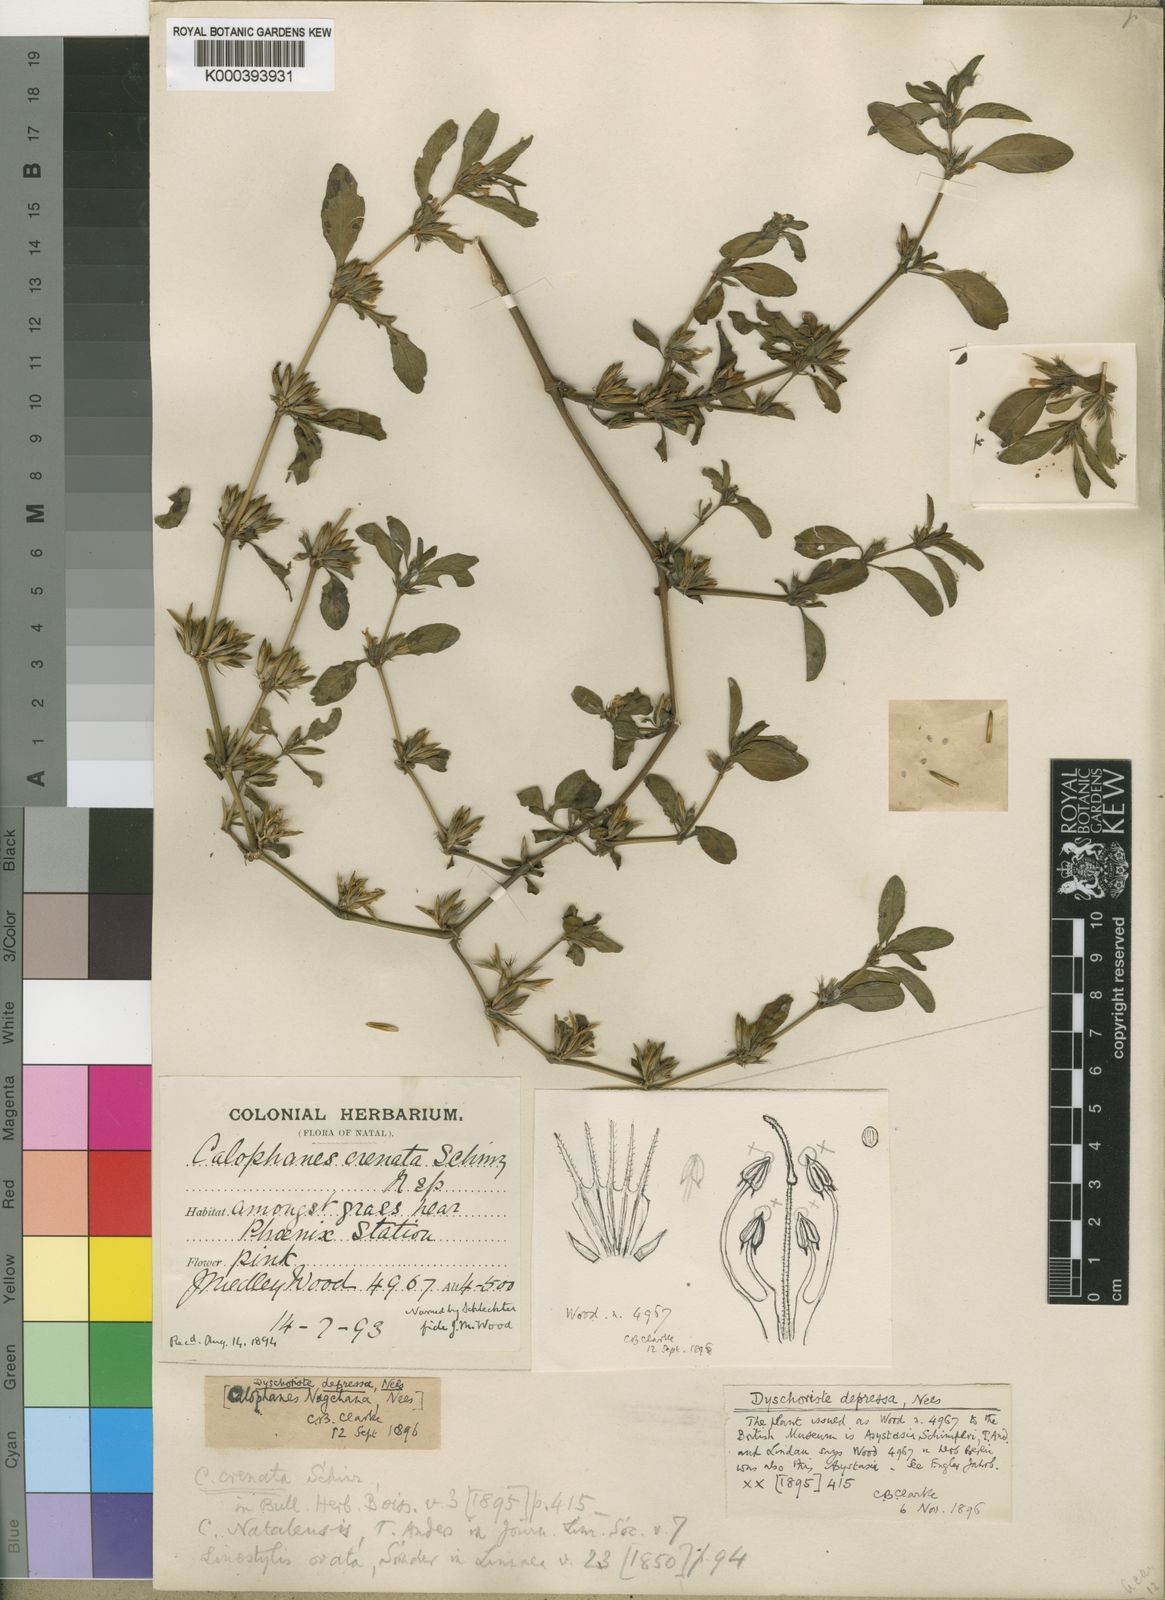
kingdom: Plantae
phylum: Tracheophyta
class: Magnoliopsida
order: Lamiales
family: Acanthaceae
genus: Dyschoriste
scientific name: Dyschoriste nagchana
